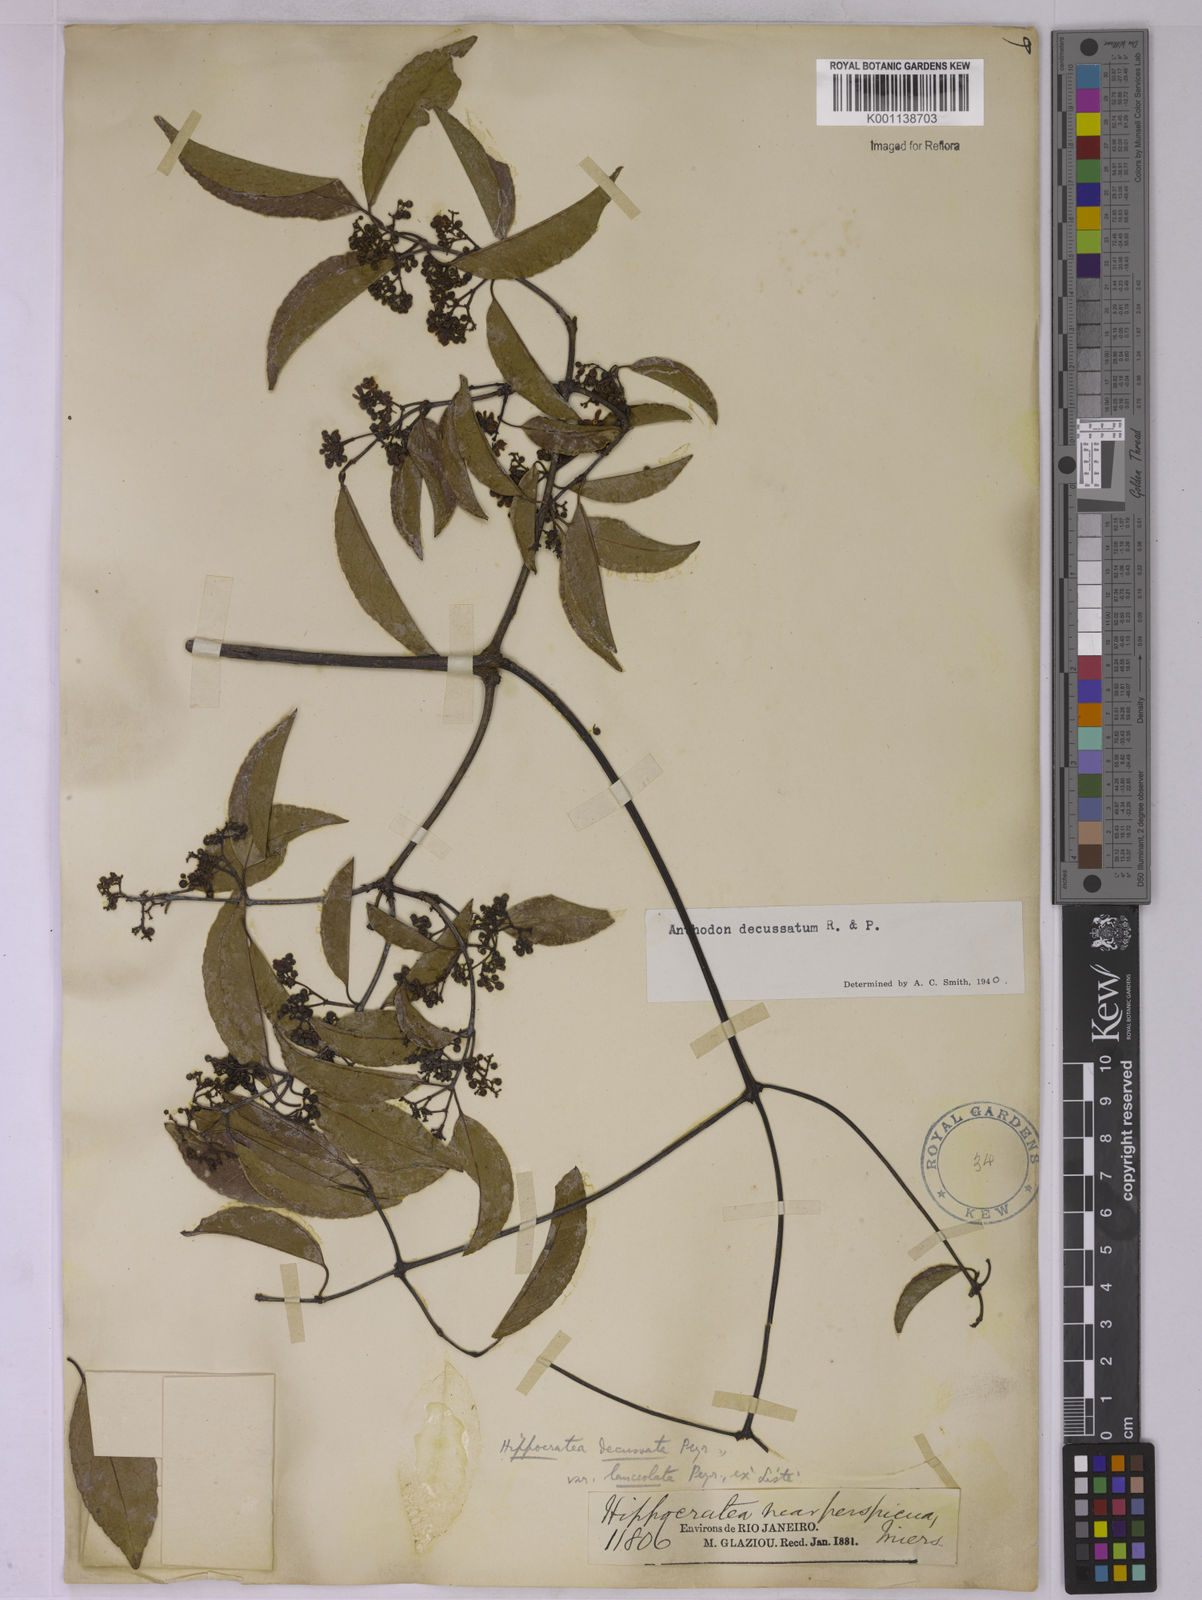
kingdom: Plantae
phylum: Tracheophyta
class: Magnoliopsida
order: Celastrales
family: Celastraceae
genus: Anthodon
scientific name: Anthodon decussatum
